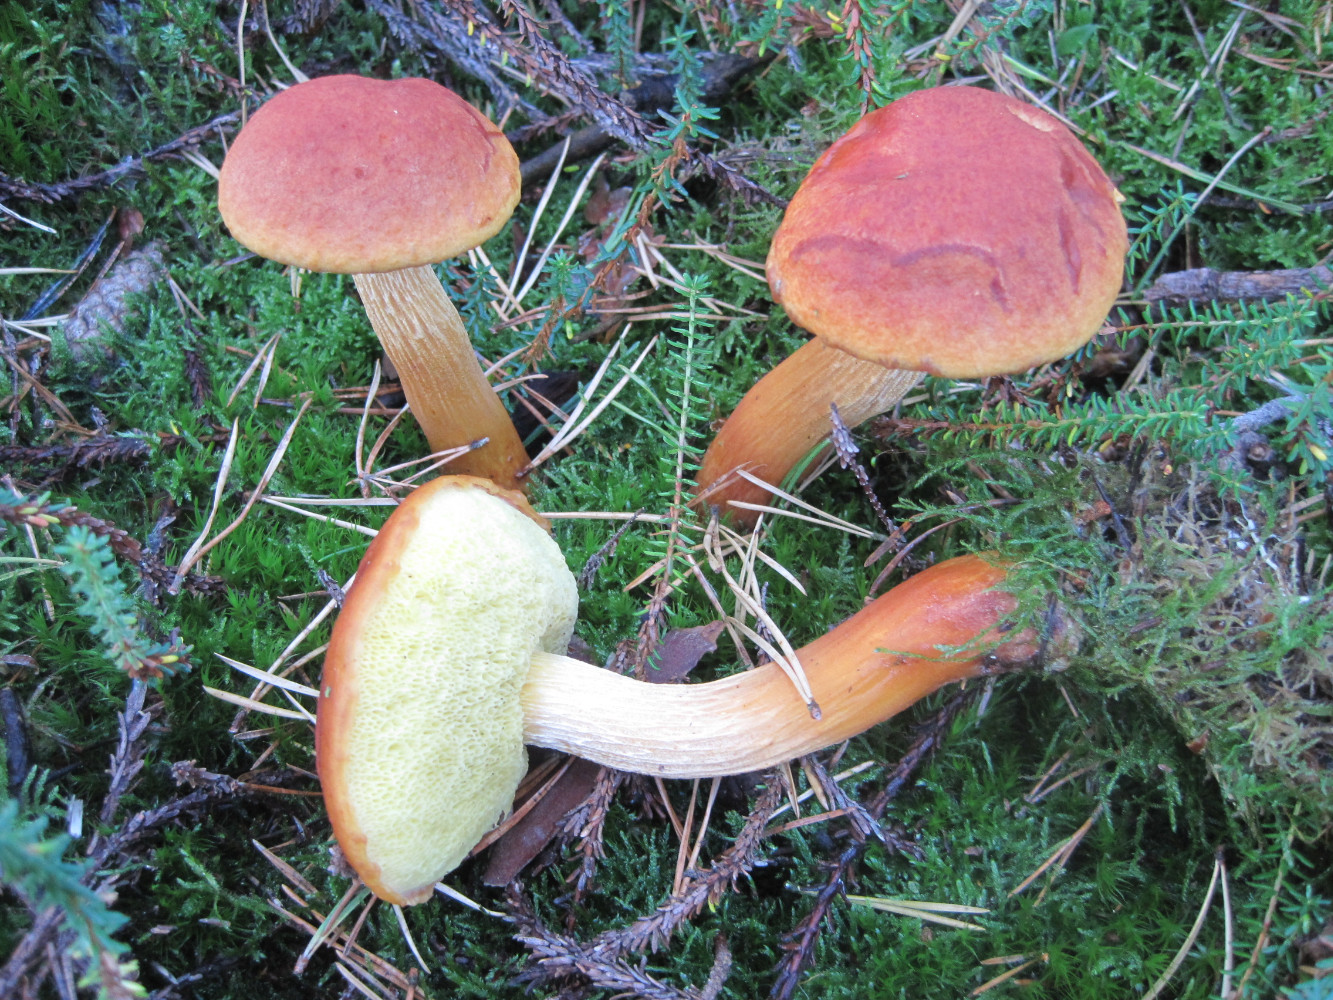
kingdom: Fungi
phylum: Basidiomycota
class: Agaricomycetes
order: Boletales
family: Boletaceae
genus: Aureoboletus
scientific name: Aureoboletus projectellus
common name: ribbestokket rørhat
